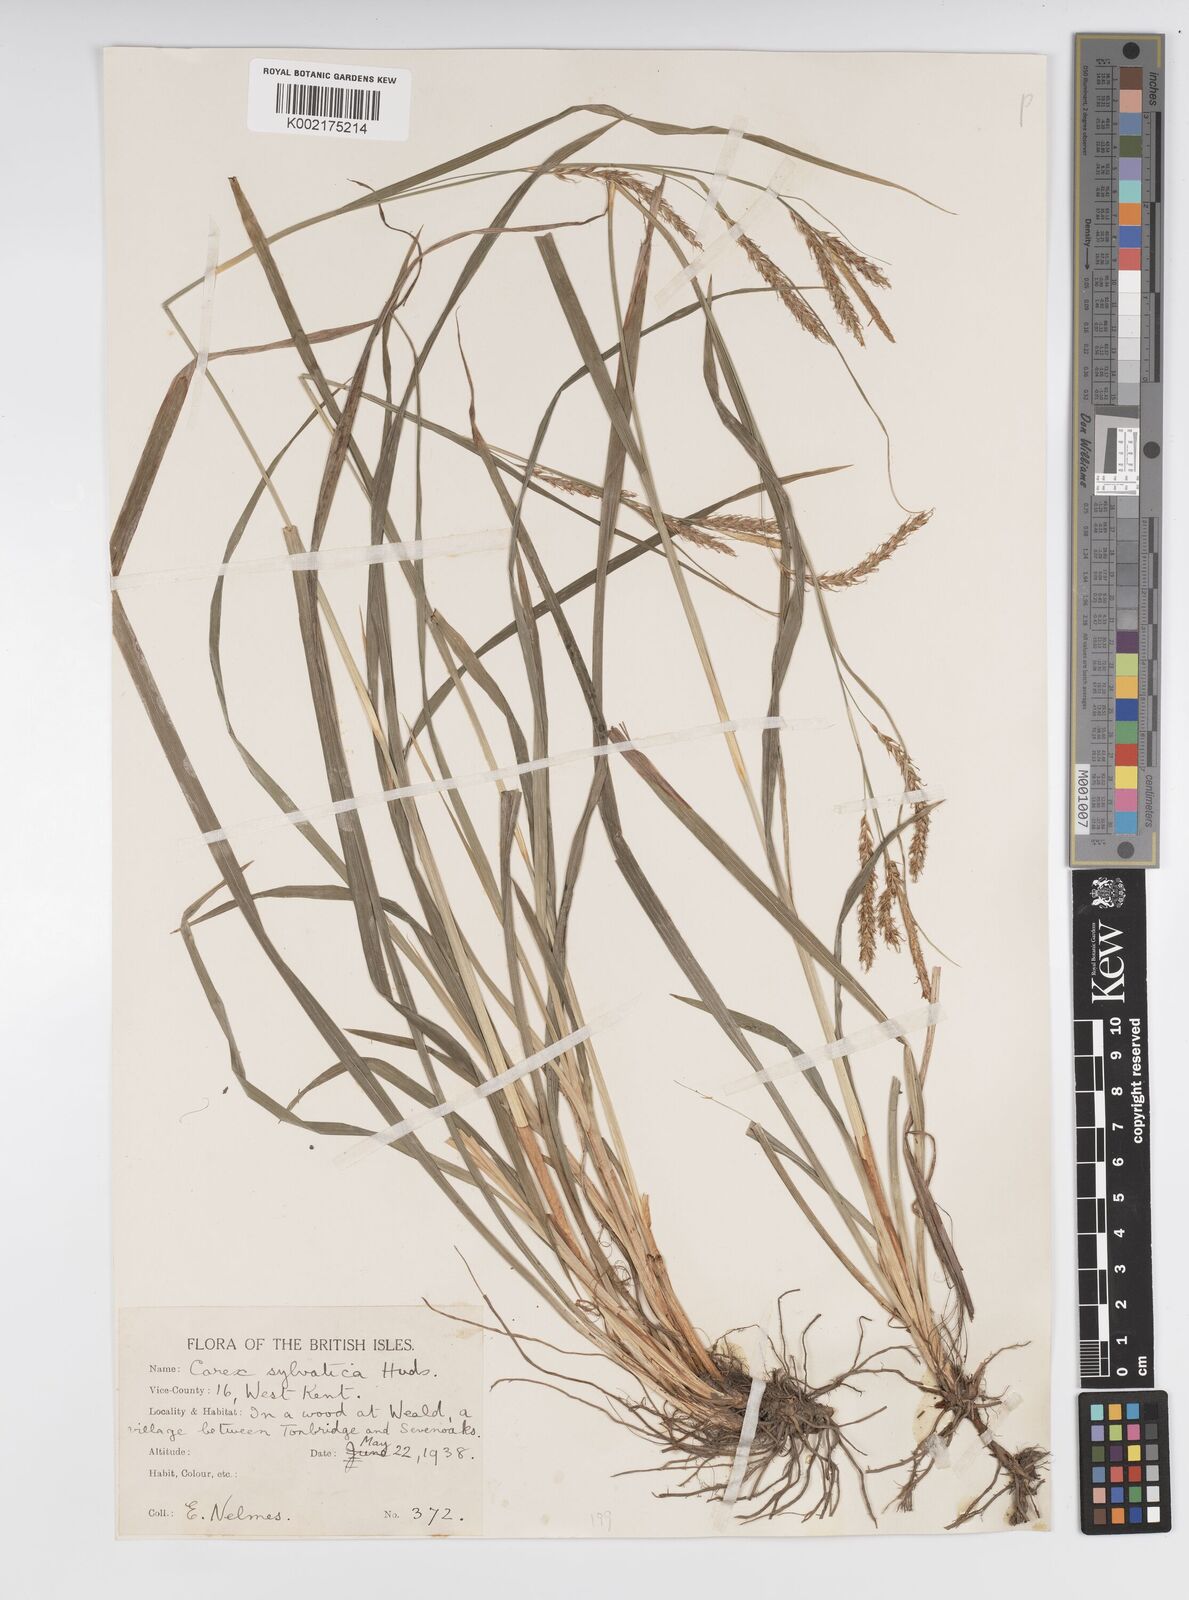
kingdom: Plantae
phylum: Tracheophyta
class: Liliopsida
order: Poales
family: Cyperaceae
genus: Carex
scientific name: Carex sylvatica
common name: Wood-sedge
